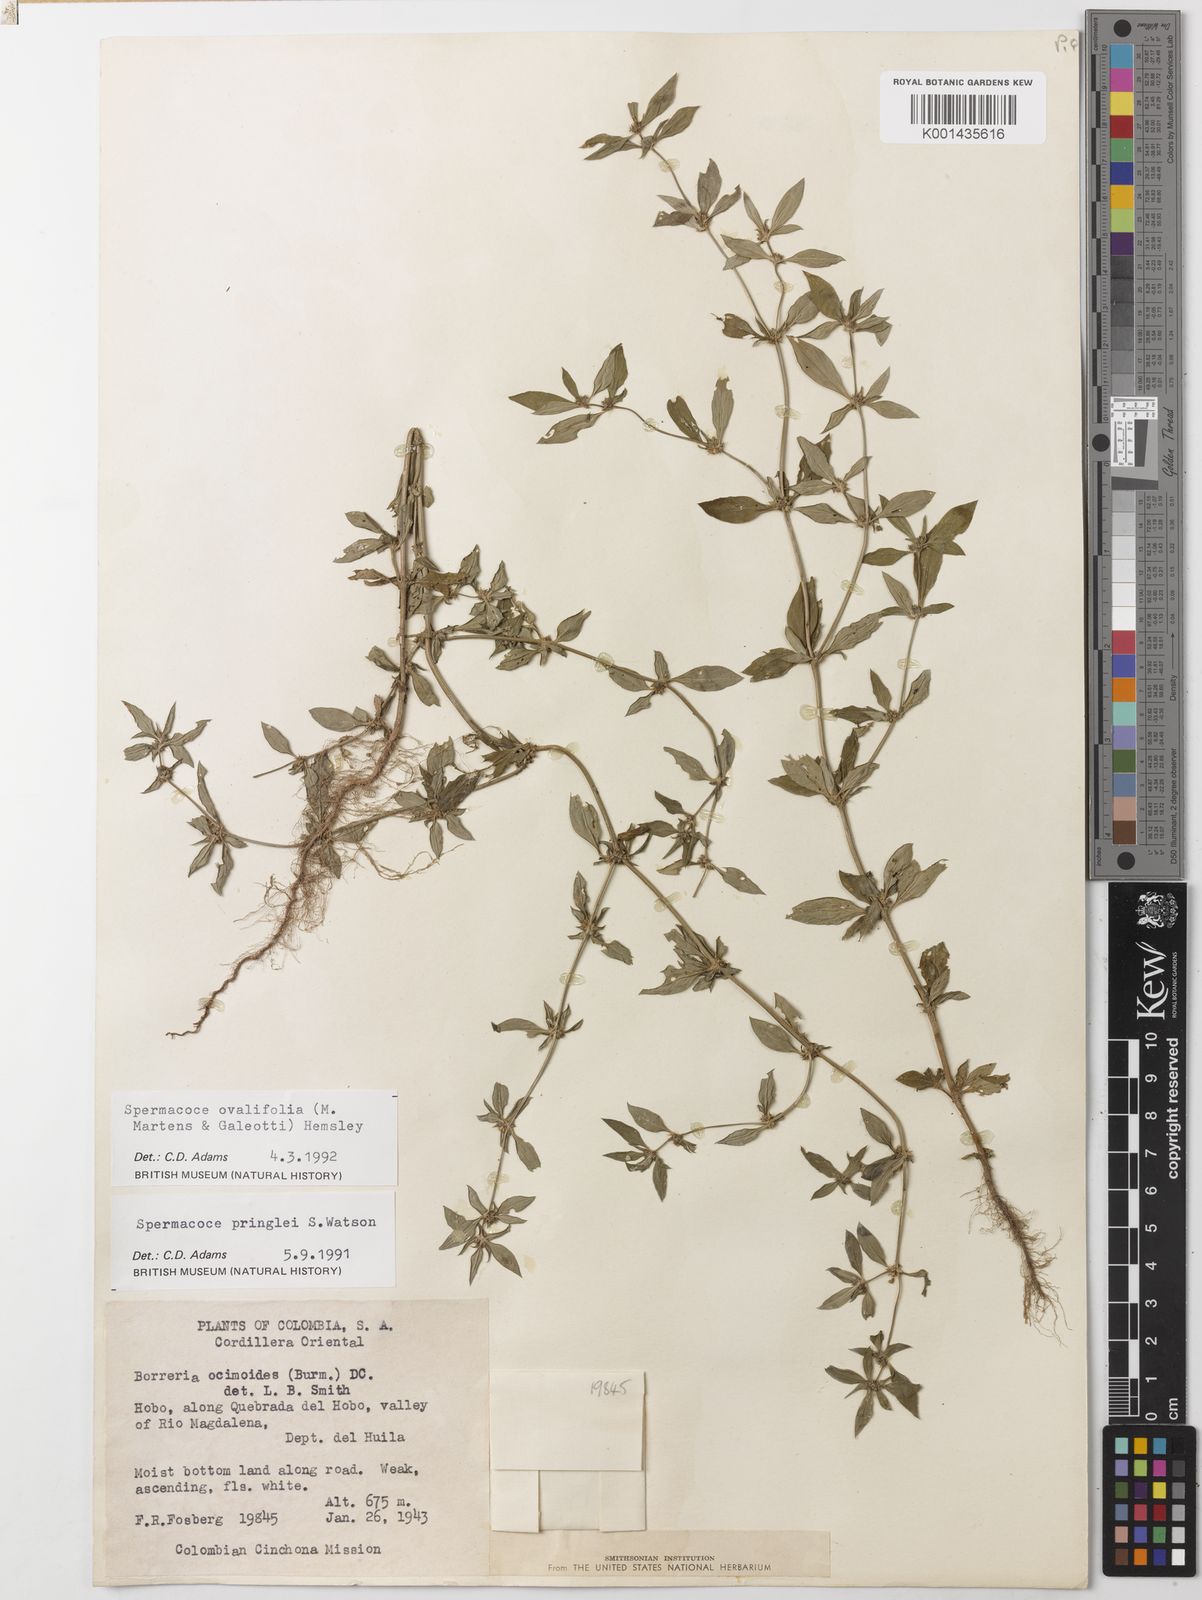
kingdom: Plantae
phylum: Tracheophyta
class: Magnoliopsida
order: Gentianales
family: Rubiaceae
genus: Spermacoce
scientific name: Spermacoce ovalifolia
